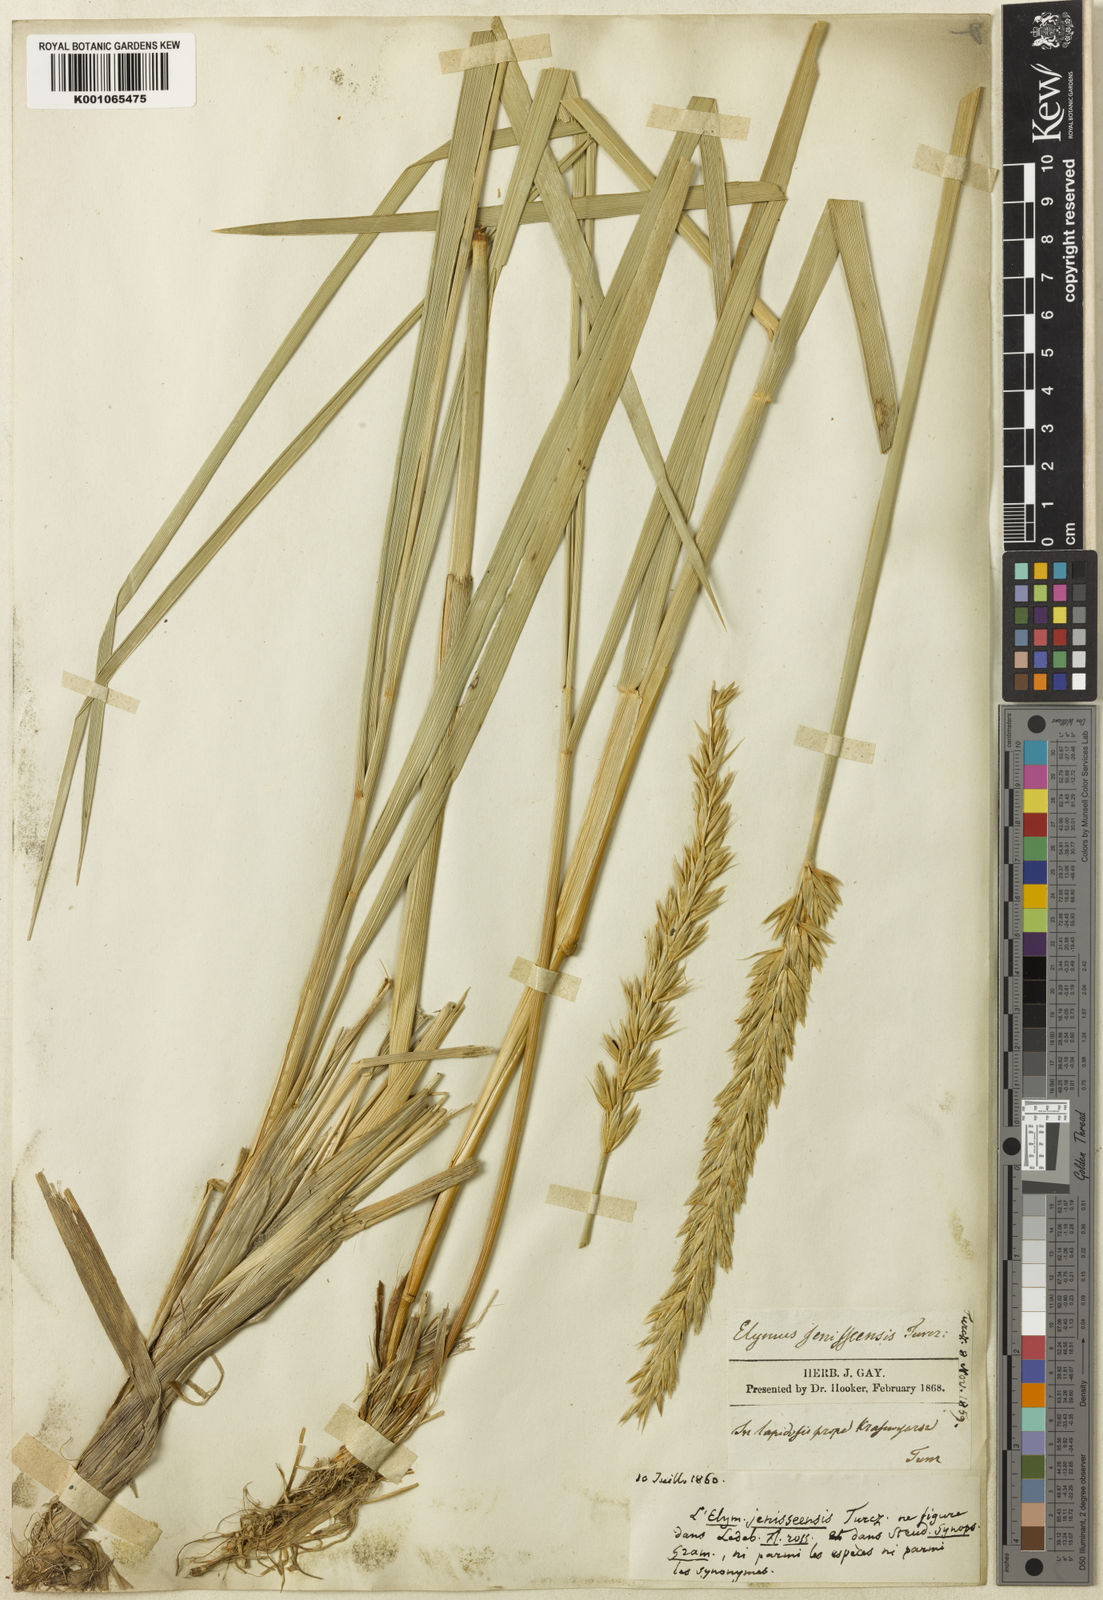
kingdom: Plantae
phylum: Tracheophyta
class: Liliopsida
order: Poales
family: Poaceae
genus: Leymus
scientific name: Leymus angustus
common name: Altai wildrye
